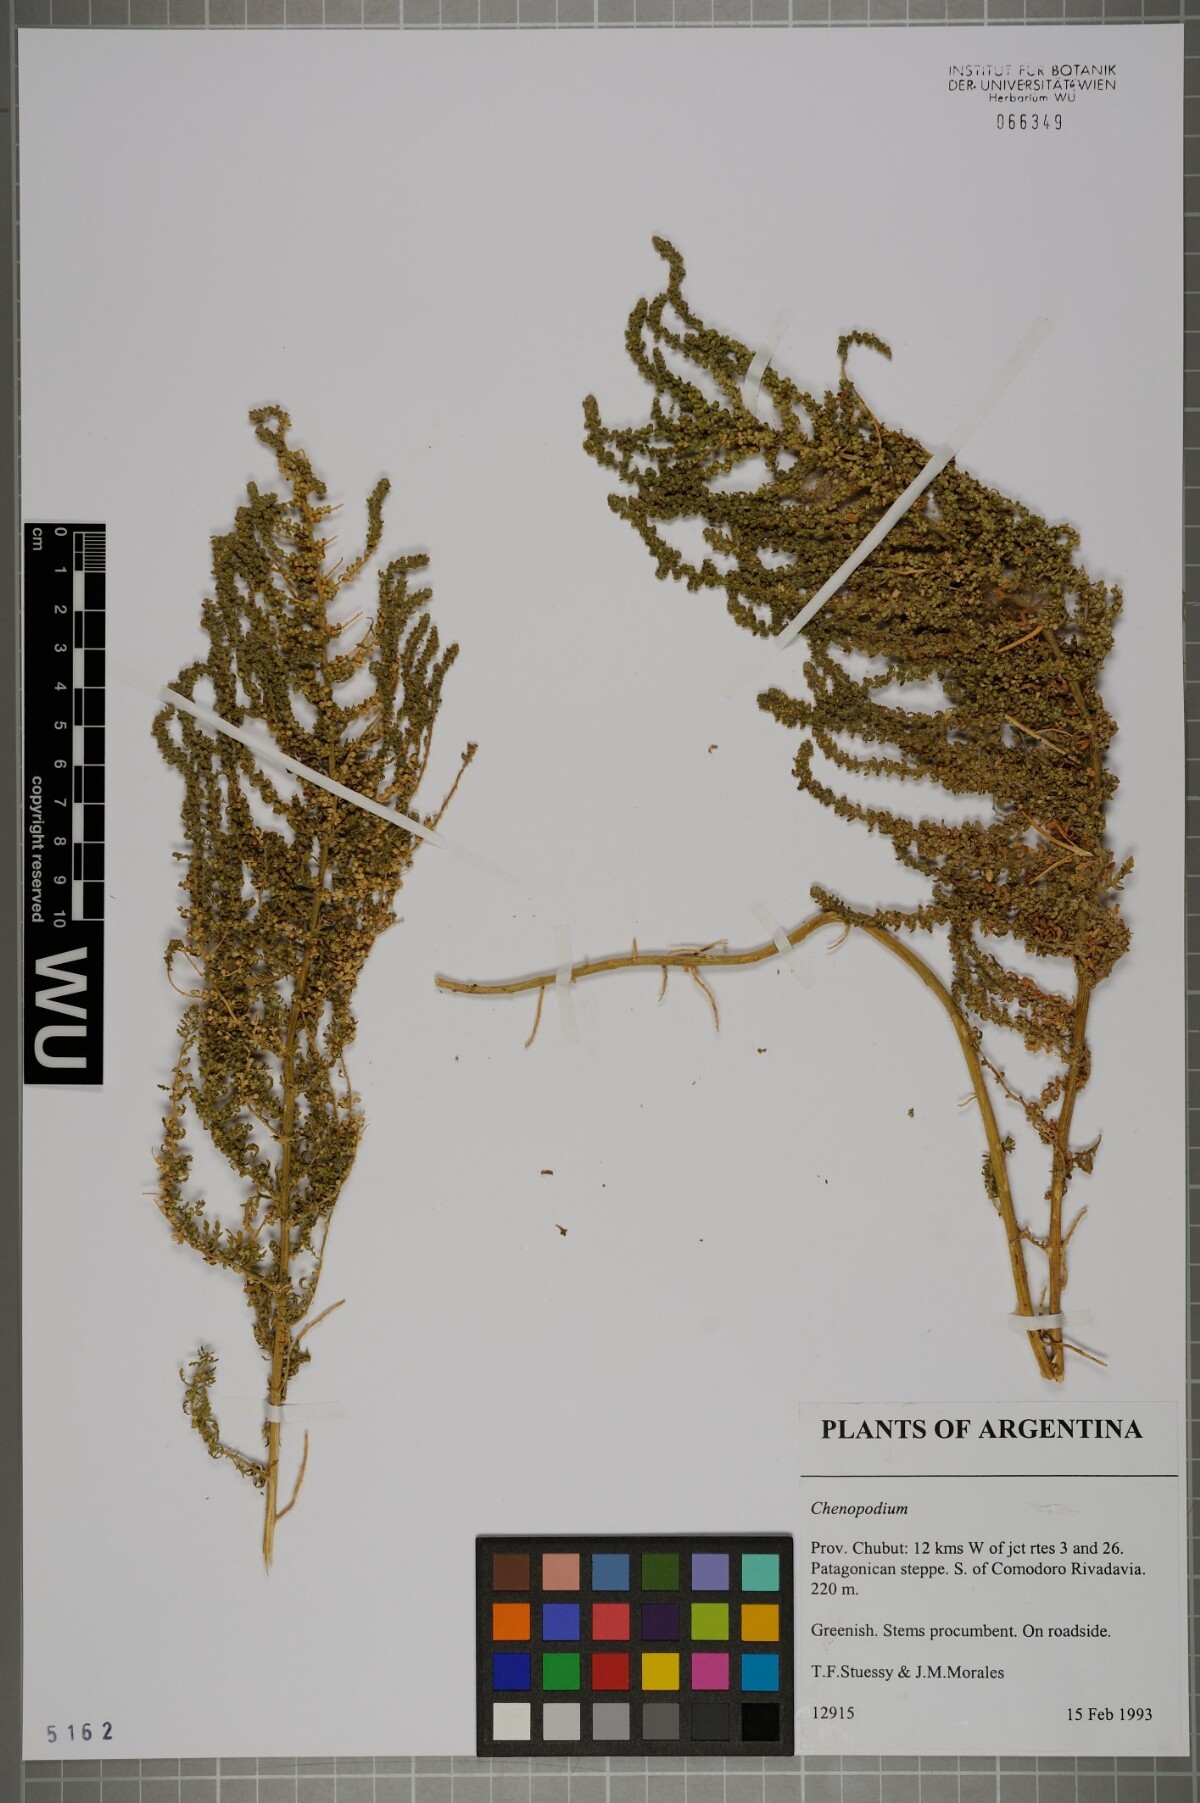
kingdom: Plantae
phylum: Tracheophyta
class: Magnoliopsida
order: Caryophyllales
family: Amaranthaceae
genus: Chenopodium
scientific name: Chenopodium
